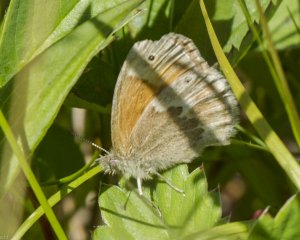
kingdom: Animalia
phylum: Arthropoda
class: Insecta
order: Lepidoptera
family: Nymphalidae
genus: Coenonympha
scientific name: Coenonympha tullia
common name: Large Heath
